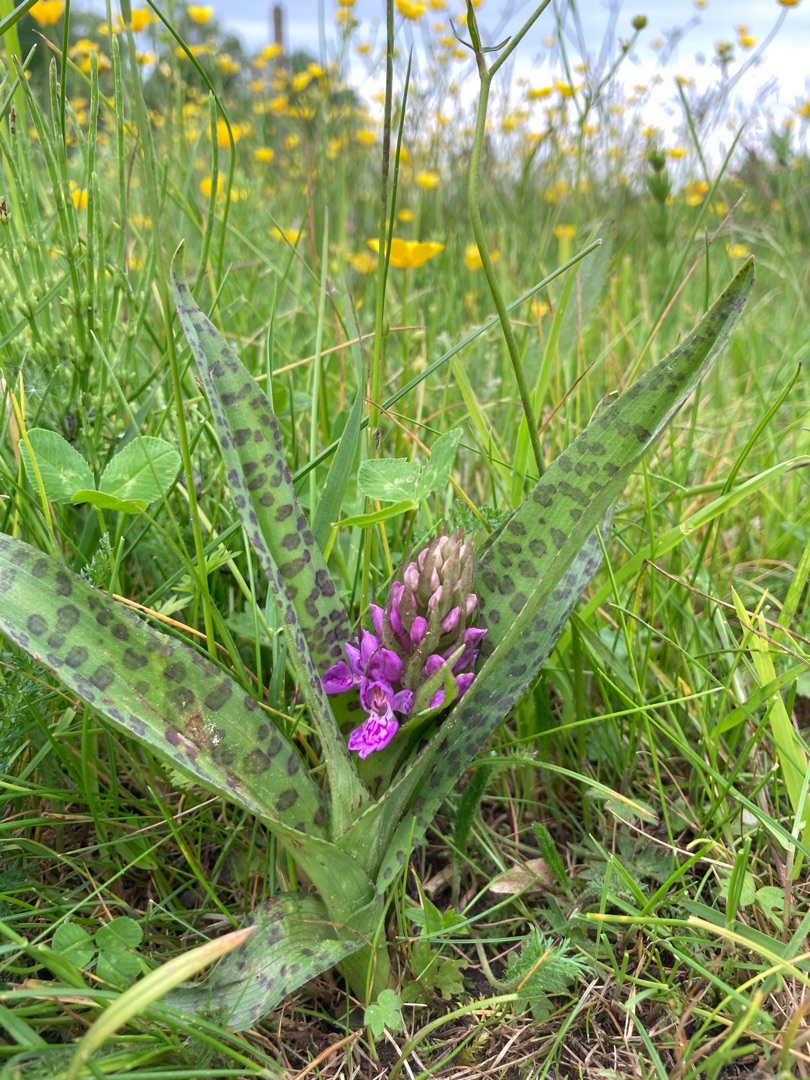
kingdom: Plantae
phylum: Tracheophyta
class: Liliopsida
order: Asparagales
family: Orchidaceae
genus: Dactylorhiza
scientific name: Dactylorhiza majalis
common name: Maj-gøgeurt
